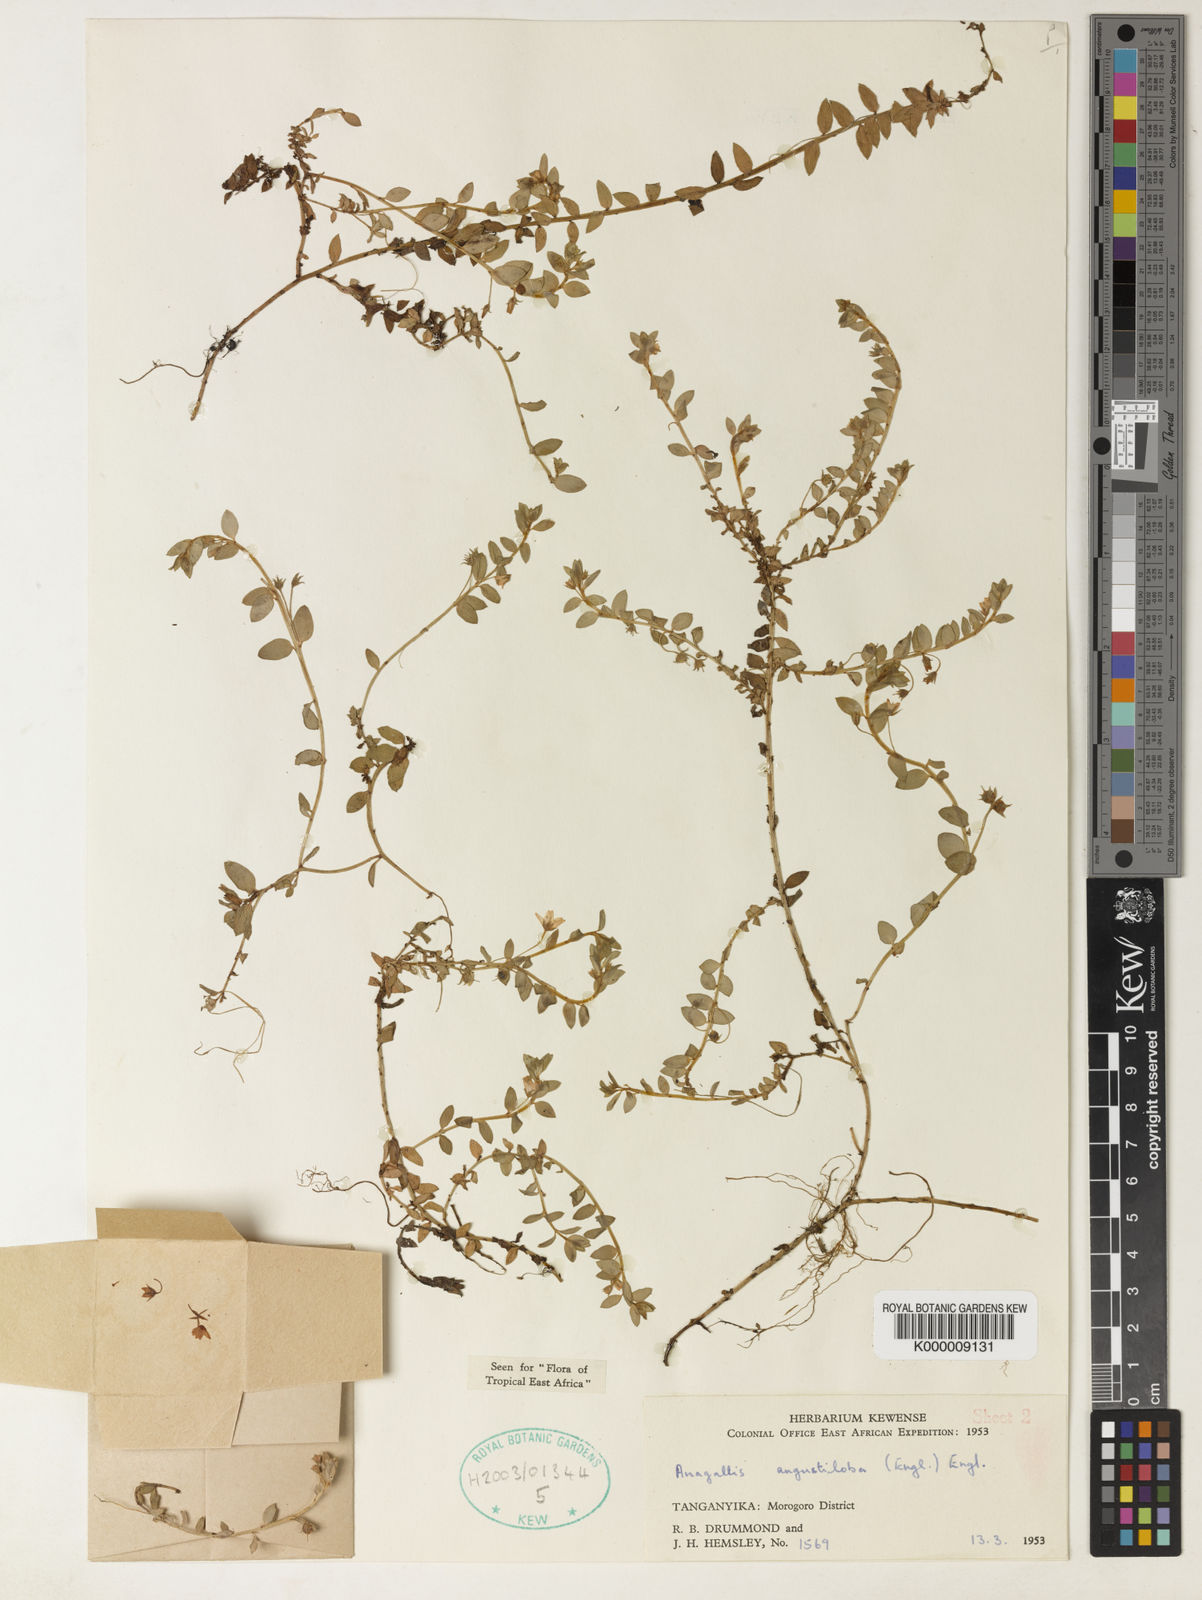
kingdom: Plantae
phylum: Tracheophyta
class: Magnoliopsida
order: Ericales
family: Primulaceae
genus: Lysimachia
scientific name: Lysimachia angustiloba
